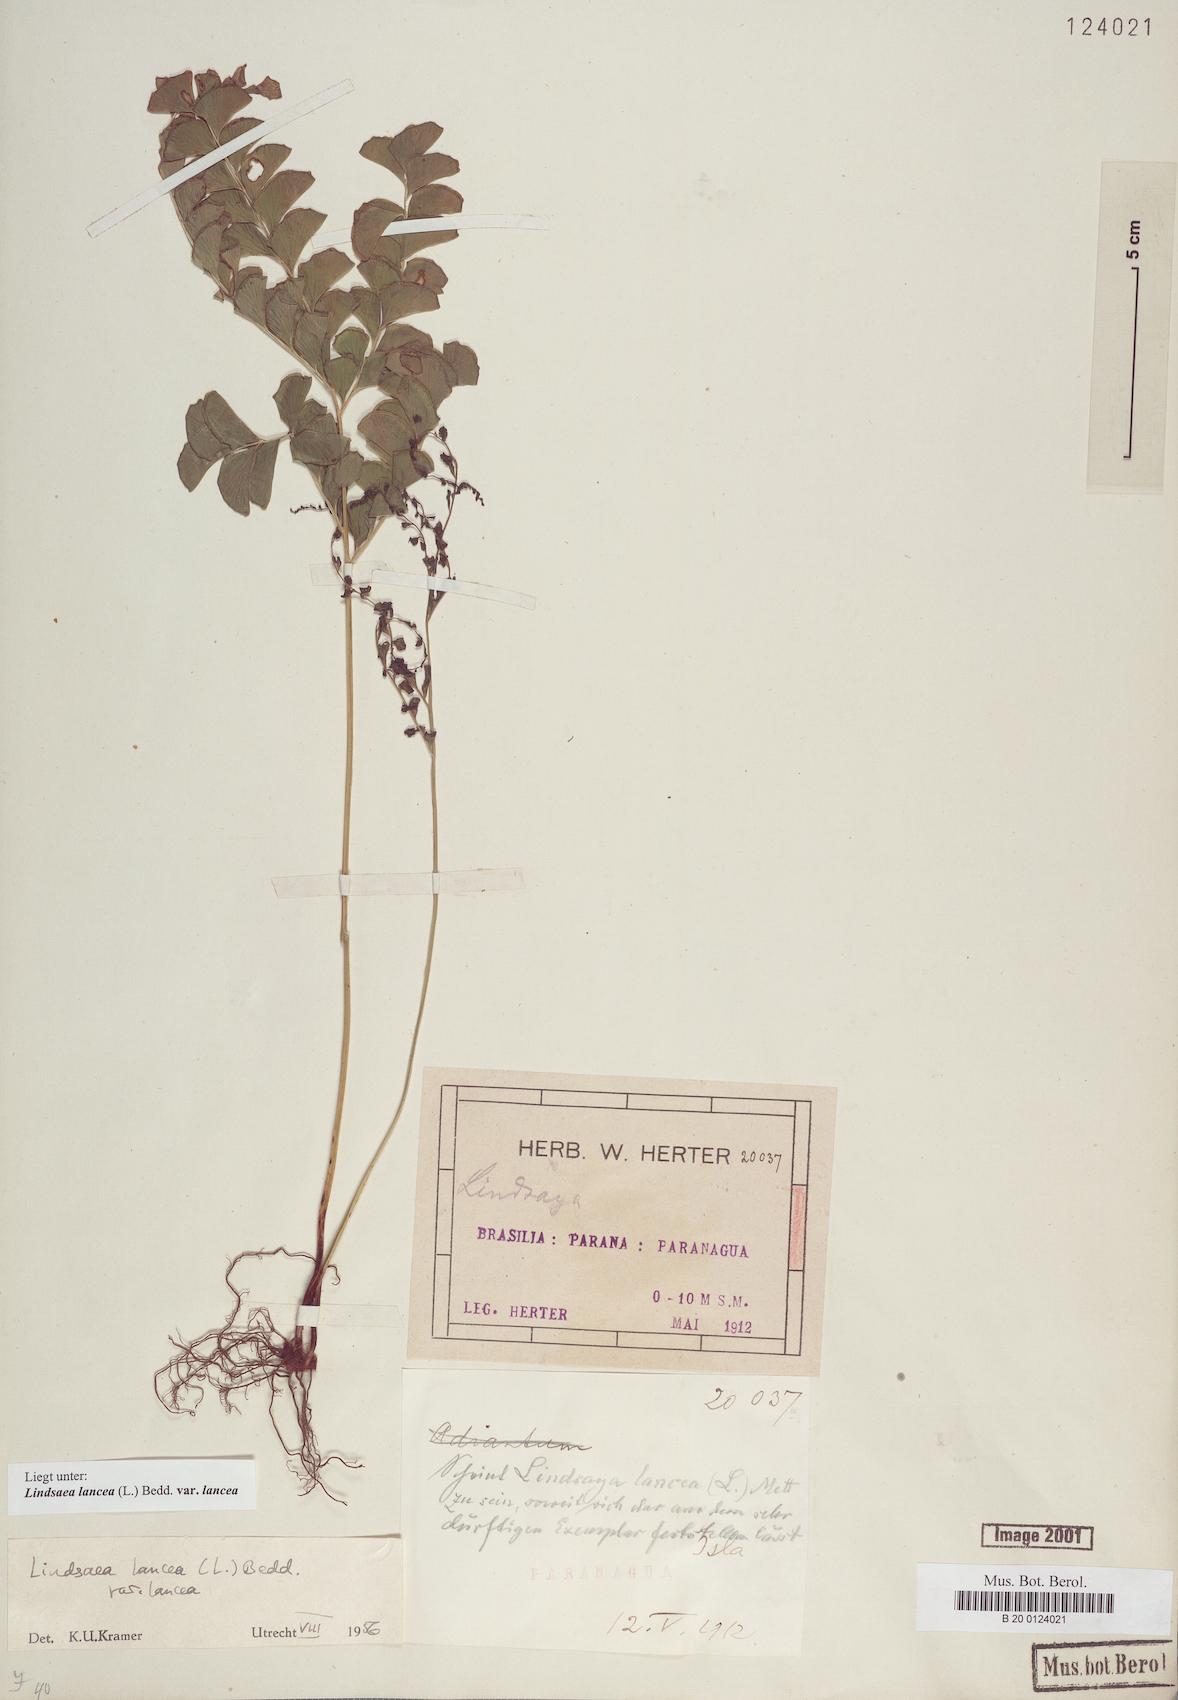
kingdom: Plantae
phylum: Tracheophyta
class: Polypodiopsida
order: Polypodiales
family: Lindsaeaceae
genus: Lindsaea
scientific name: Lindsaea lancea
